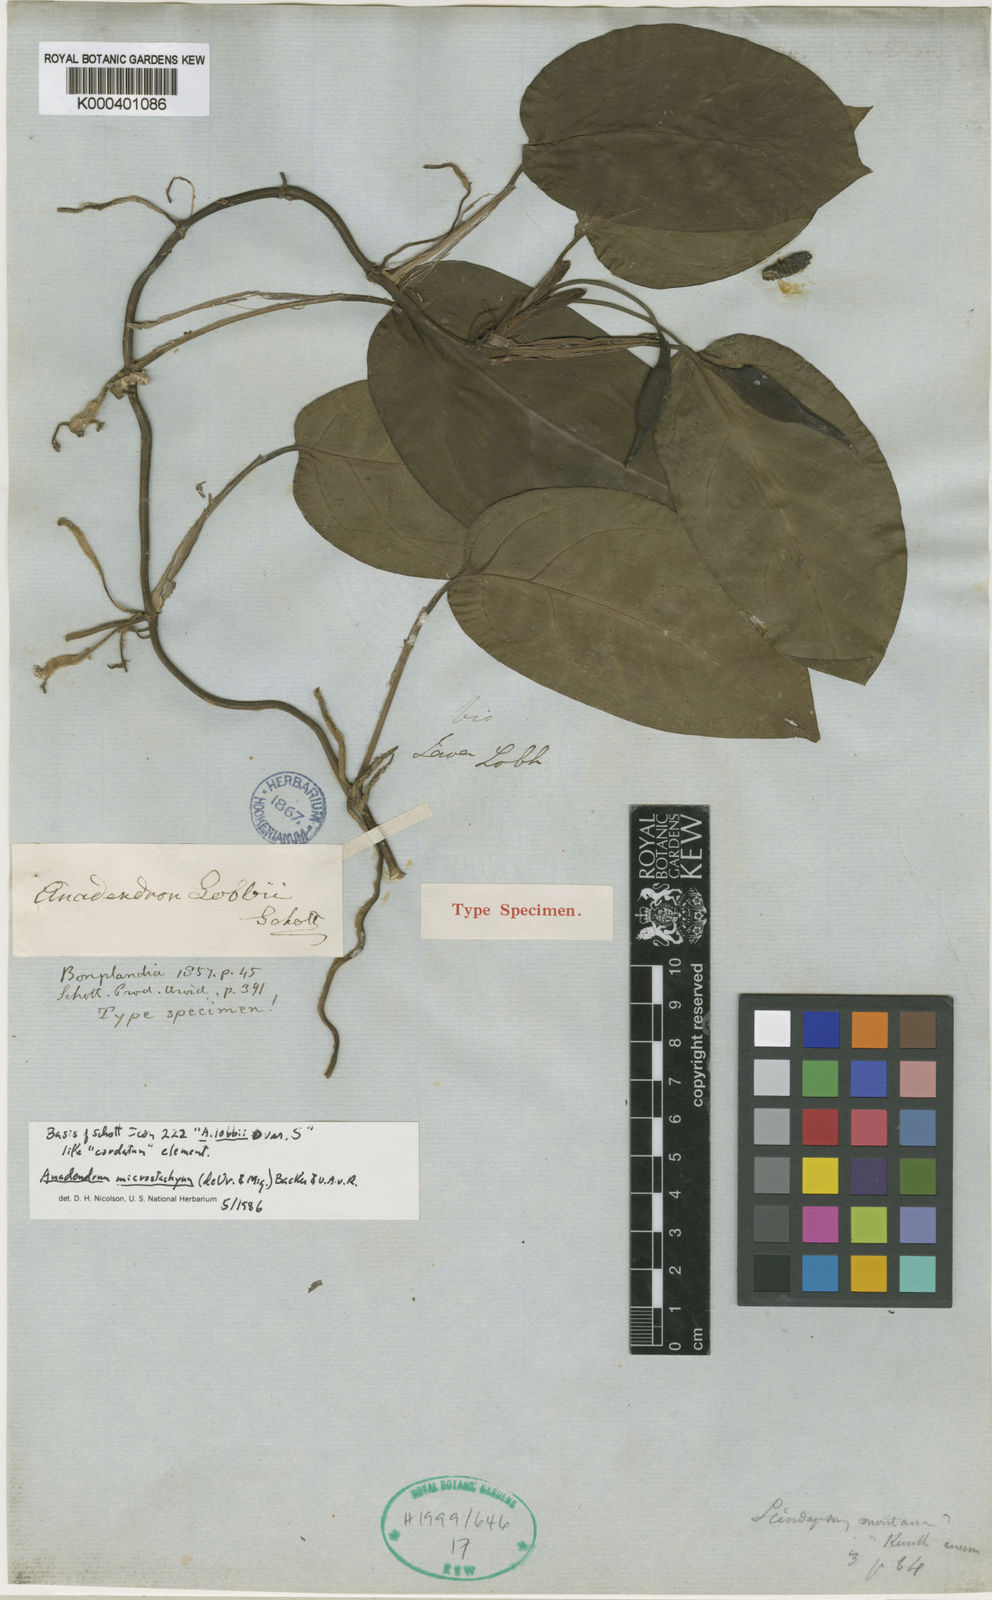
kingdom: Plantae
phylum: Tracheophyta
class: Liliopsida
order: Alismatales
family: Araceae
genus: Anadendrum
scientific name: Anadendrum microstachyum
